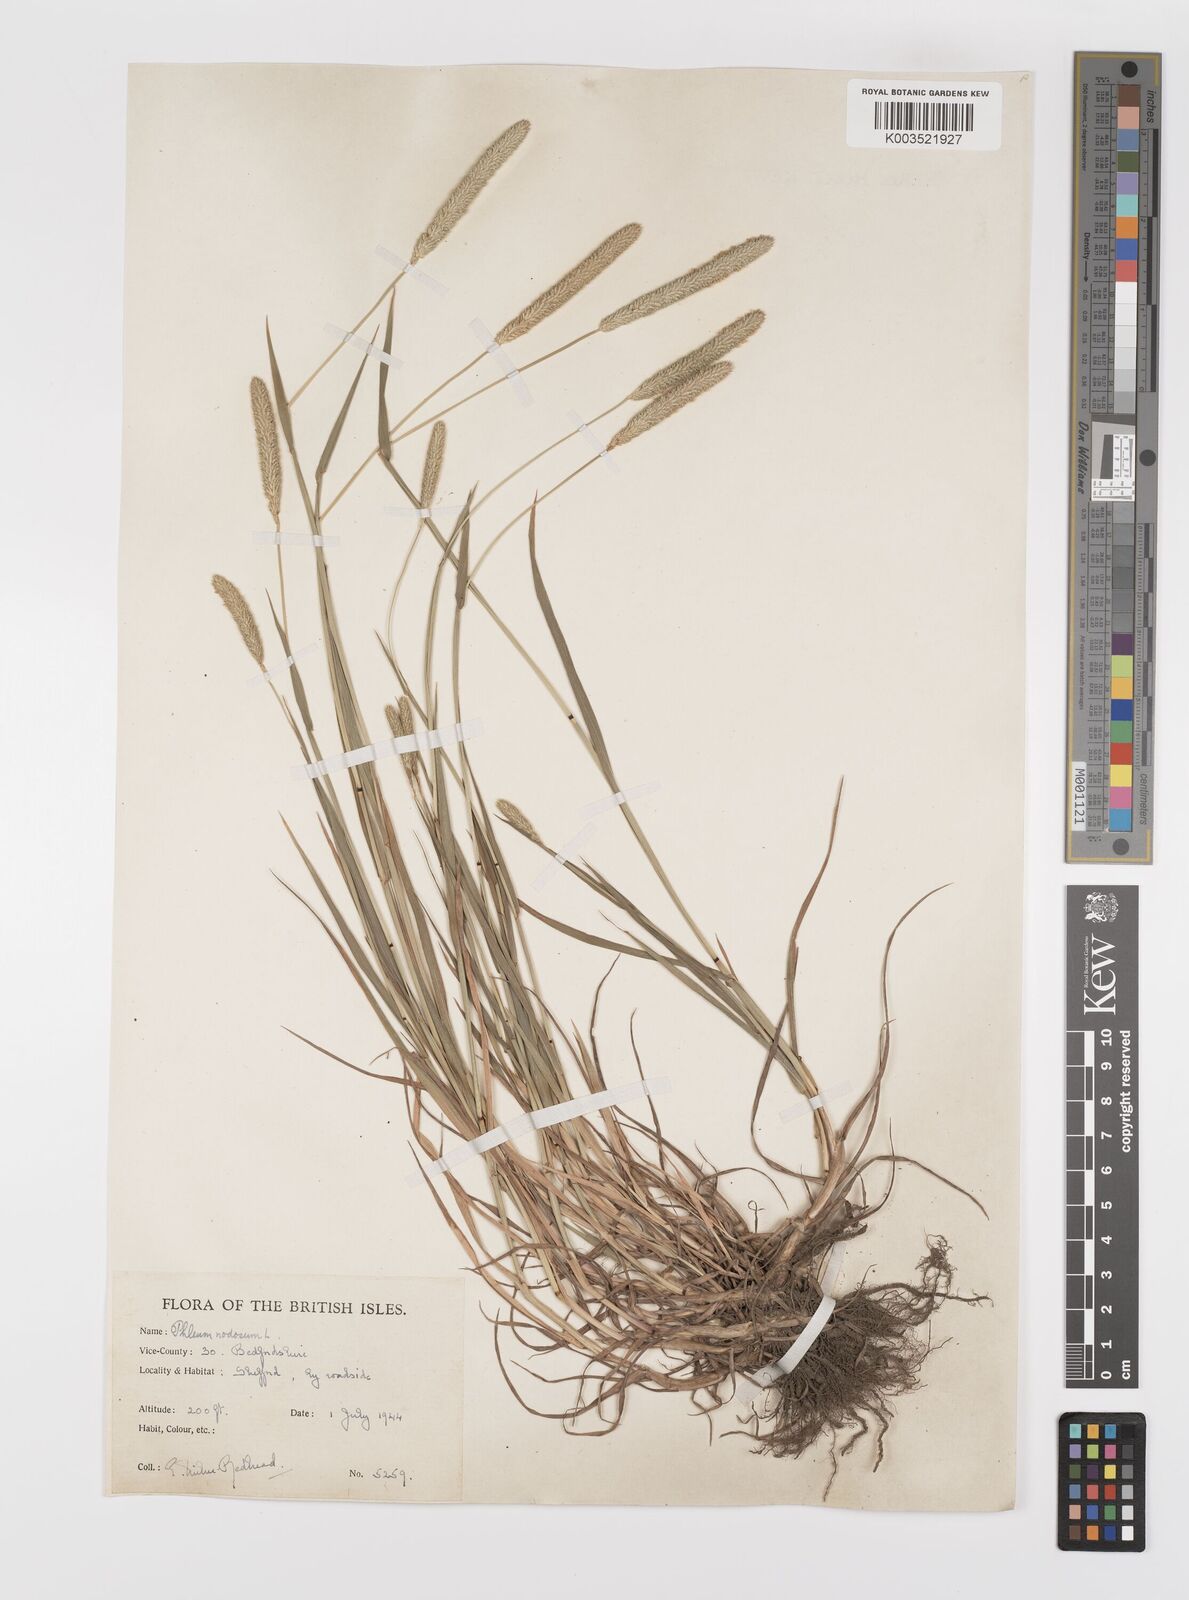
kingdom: Plantae
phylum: Tracheophyta
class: Liliopsida
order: Poales
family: Poaceae
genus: Phleum
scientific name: Phleum bertolonii
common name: Smaller cat's-tail
